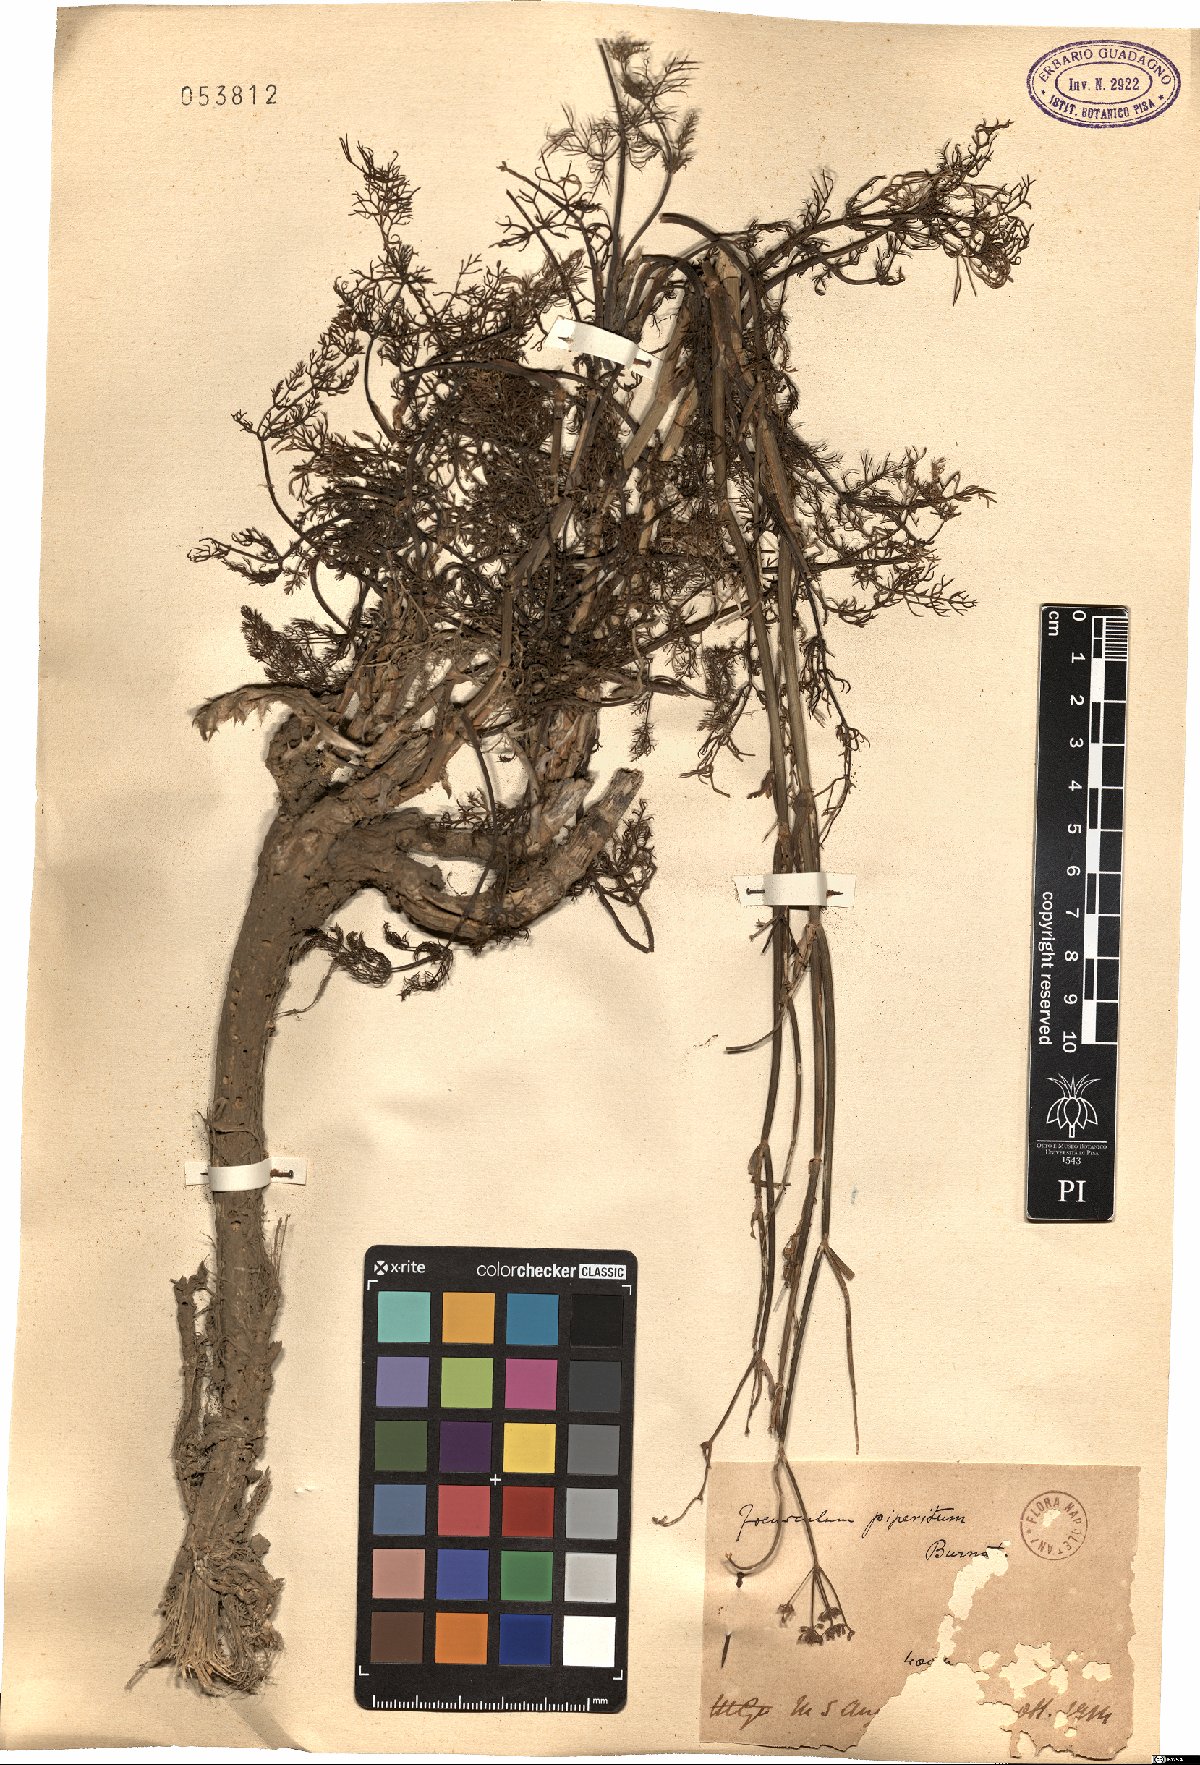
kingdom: Plantae
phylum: Tracheophyta
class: Magnoliopsida
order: Apiales
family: Apiaceae
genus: Foeniculum
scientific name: Foeniculum vulgare
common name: Fennel
